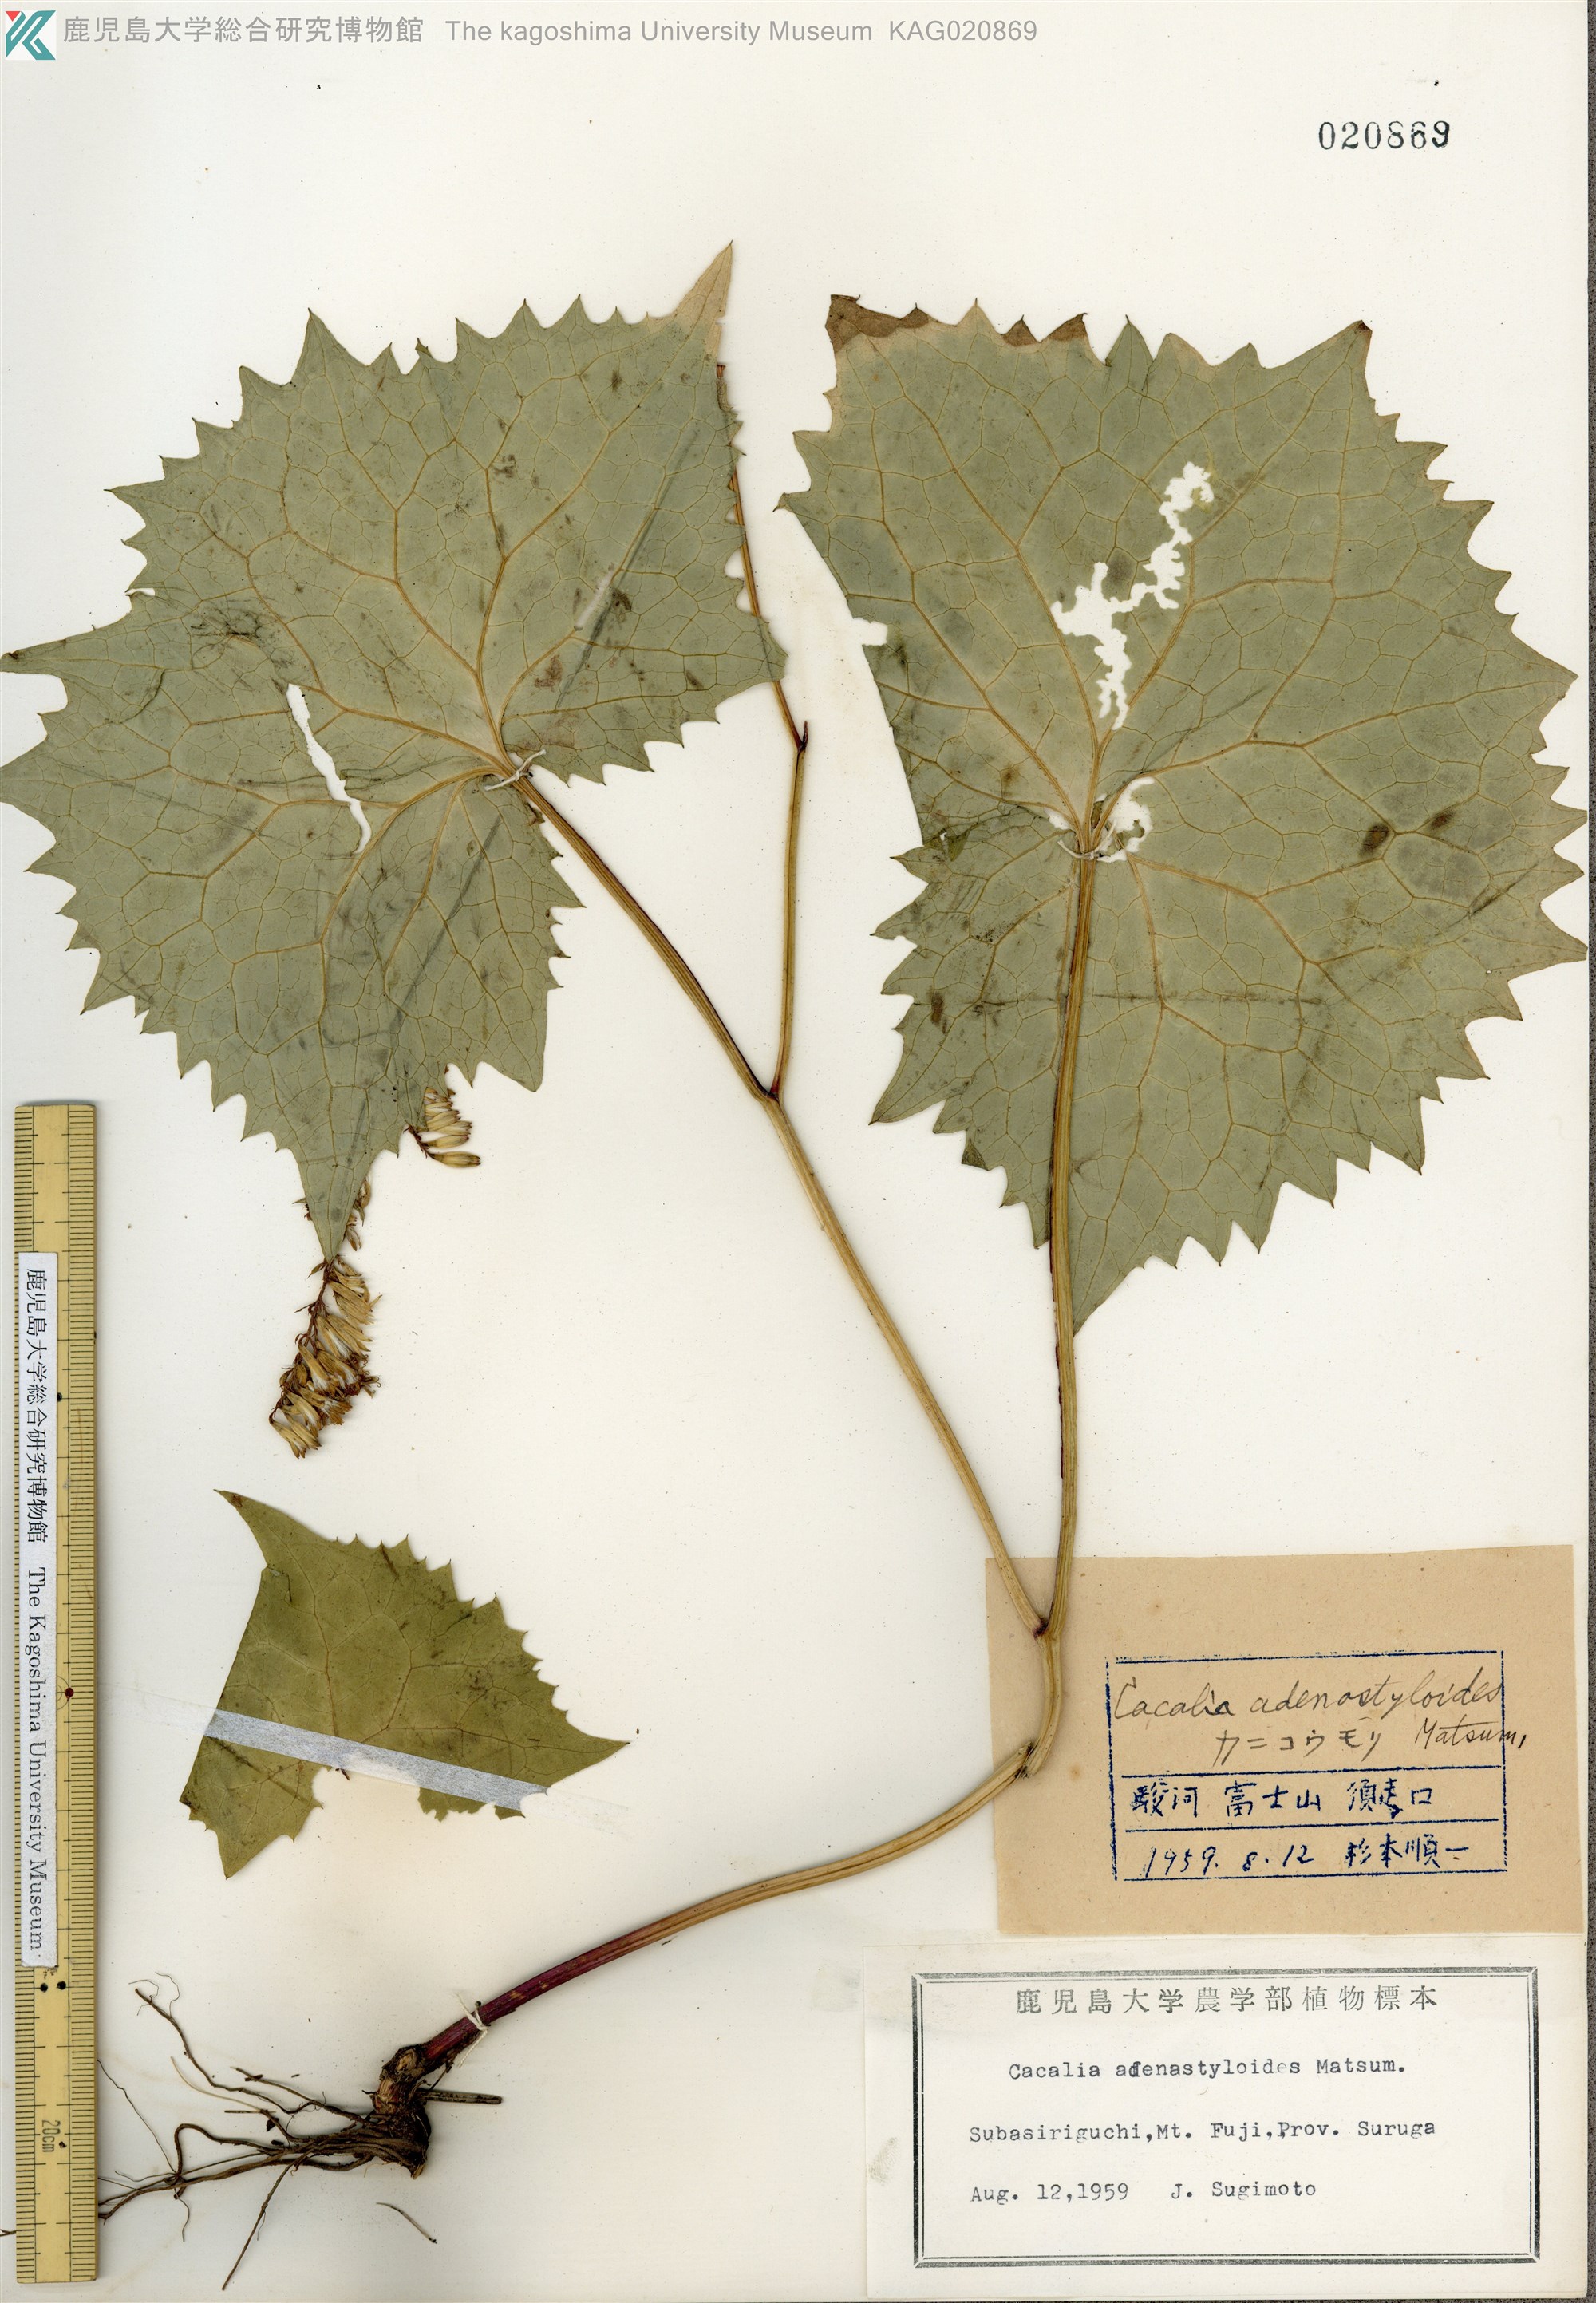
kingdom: Plantae
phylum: Tracheophyta
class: Magnoliopsida
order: Asterales
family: Asteraceae
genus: Parasenecio
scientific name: Parasenecio farfarifolius
